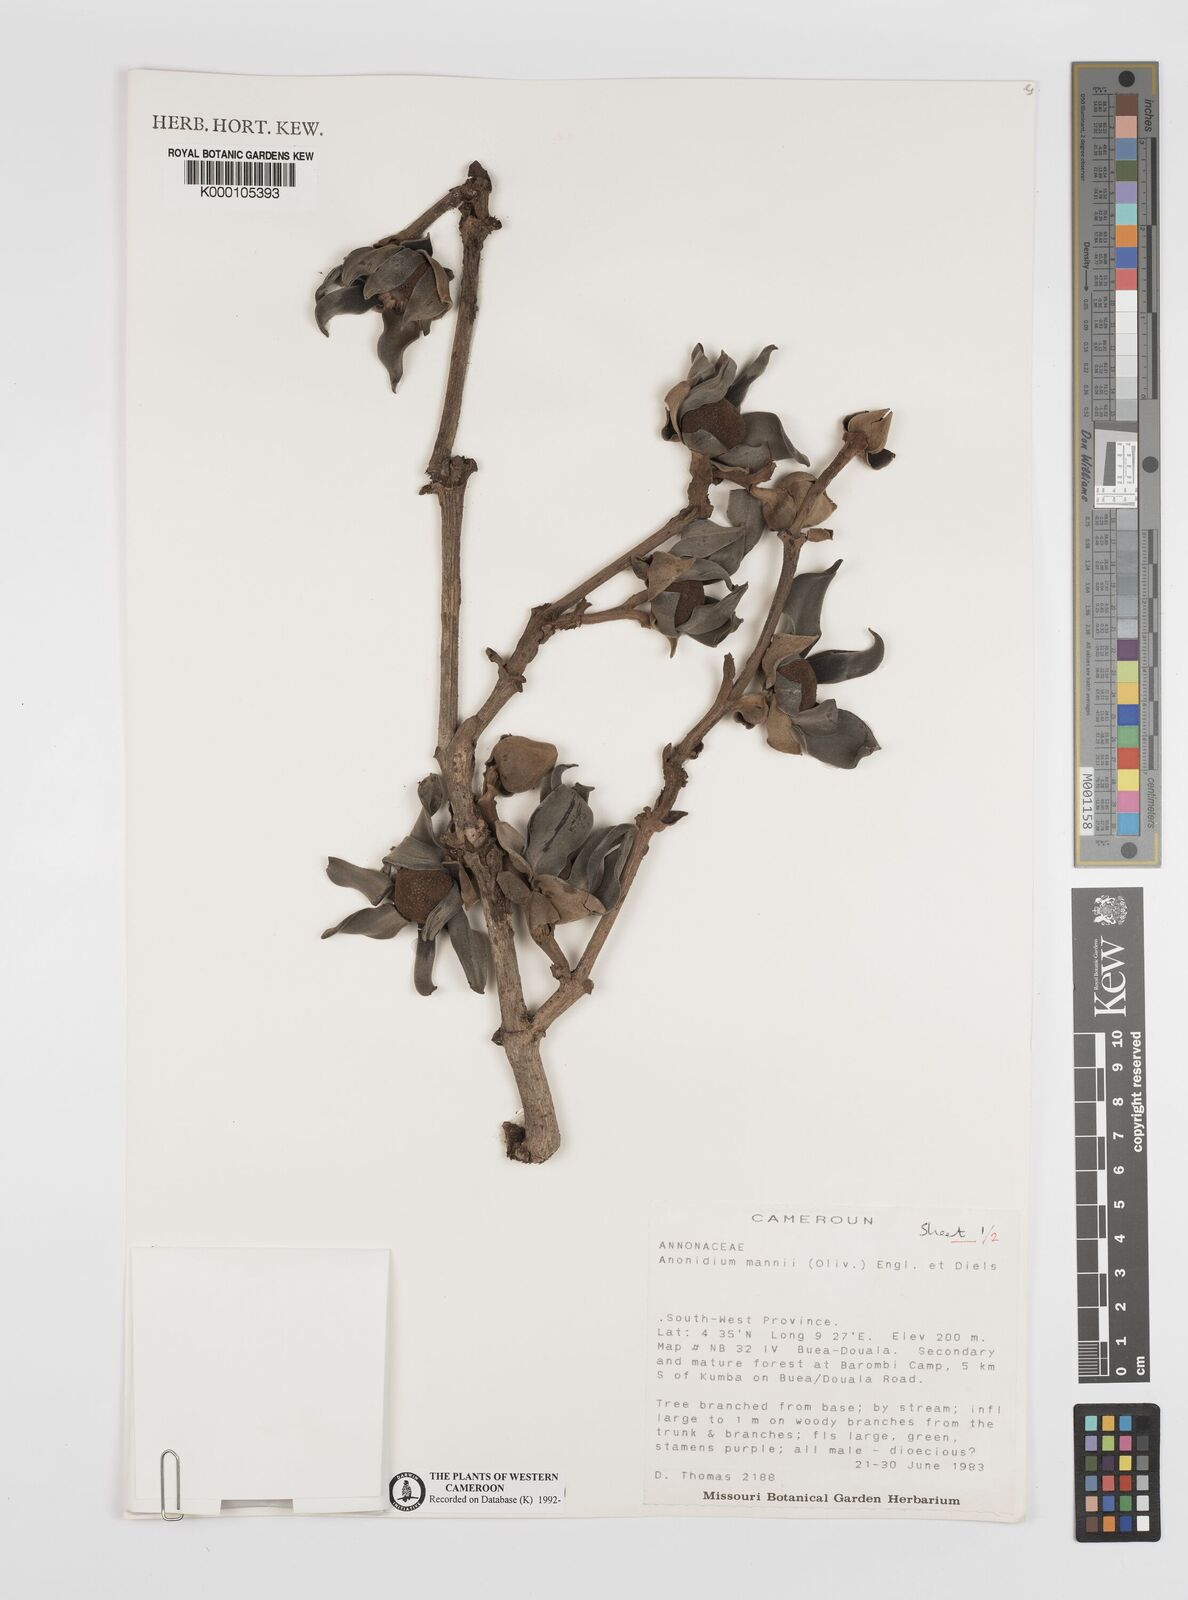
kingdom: Plantae
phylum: Tracheophyta
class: Magnoliopsida
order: Magnoliales
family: Annonaceae
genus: Anonidium
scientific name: Anonidium mannii
